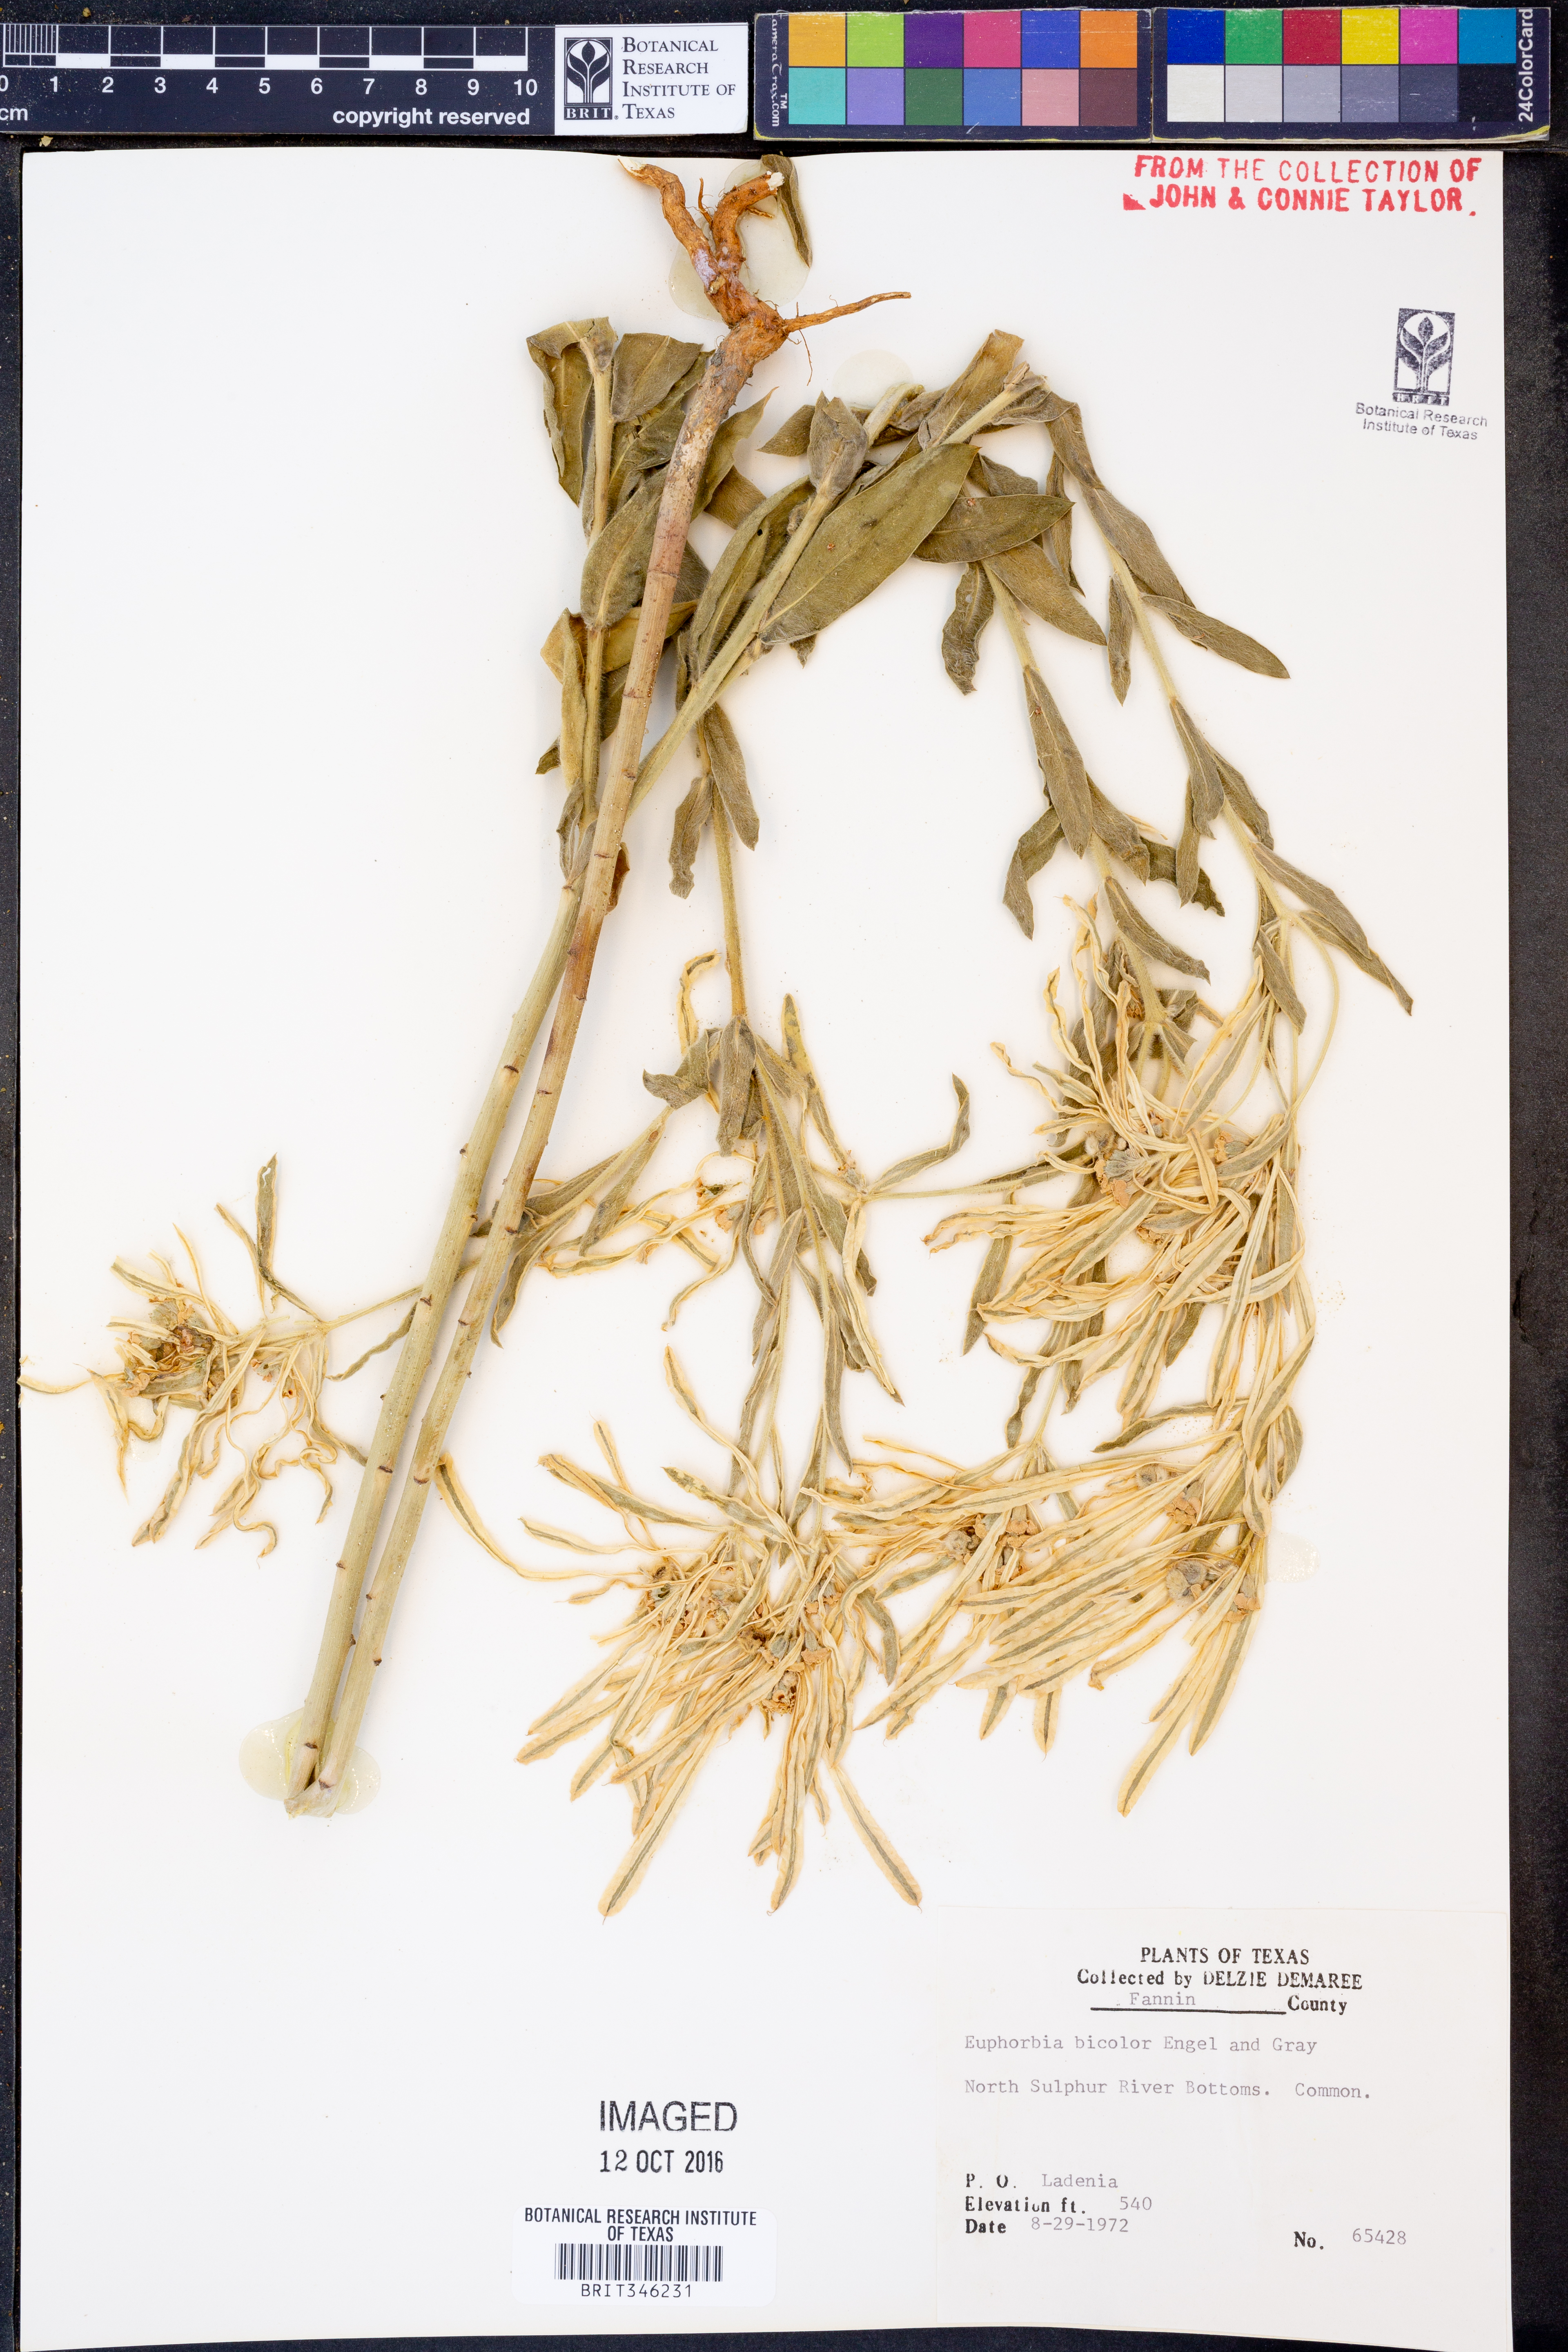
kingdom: Plantae
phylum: Tracheophyta
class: Magnoliopsida
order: Malpighiales
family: Euphorbiaceae
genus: Euphorbia
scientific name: Euphorbia bicolor
